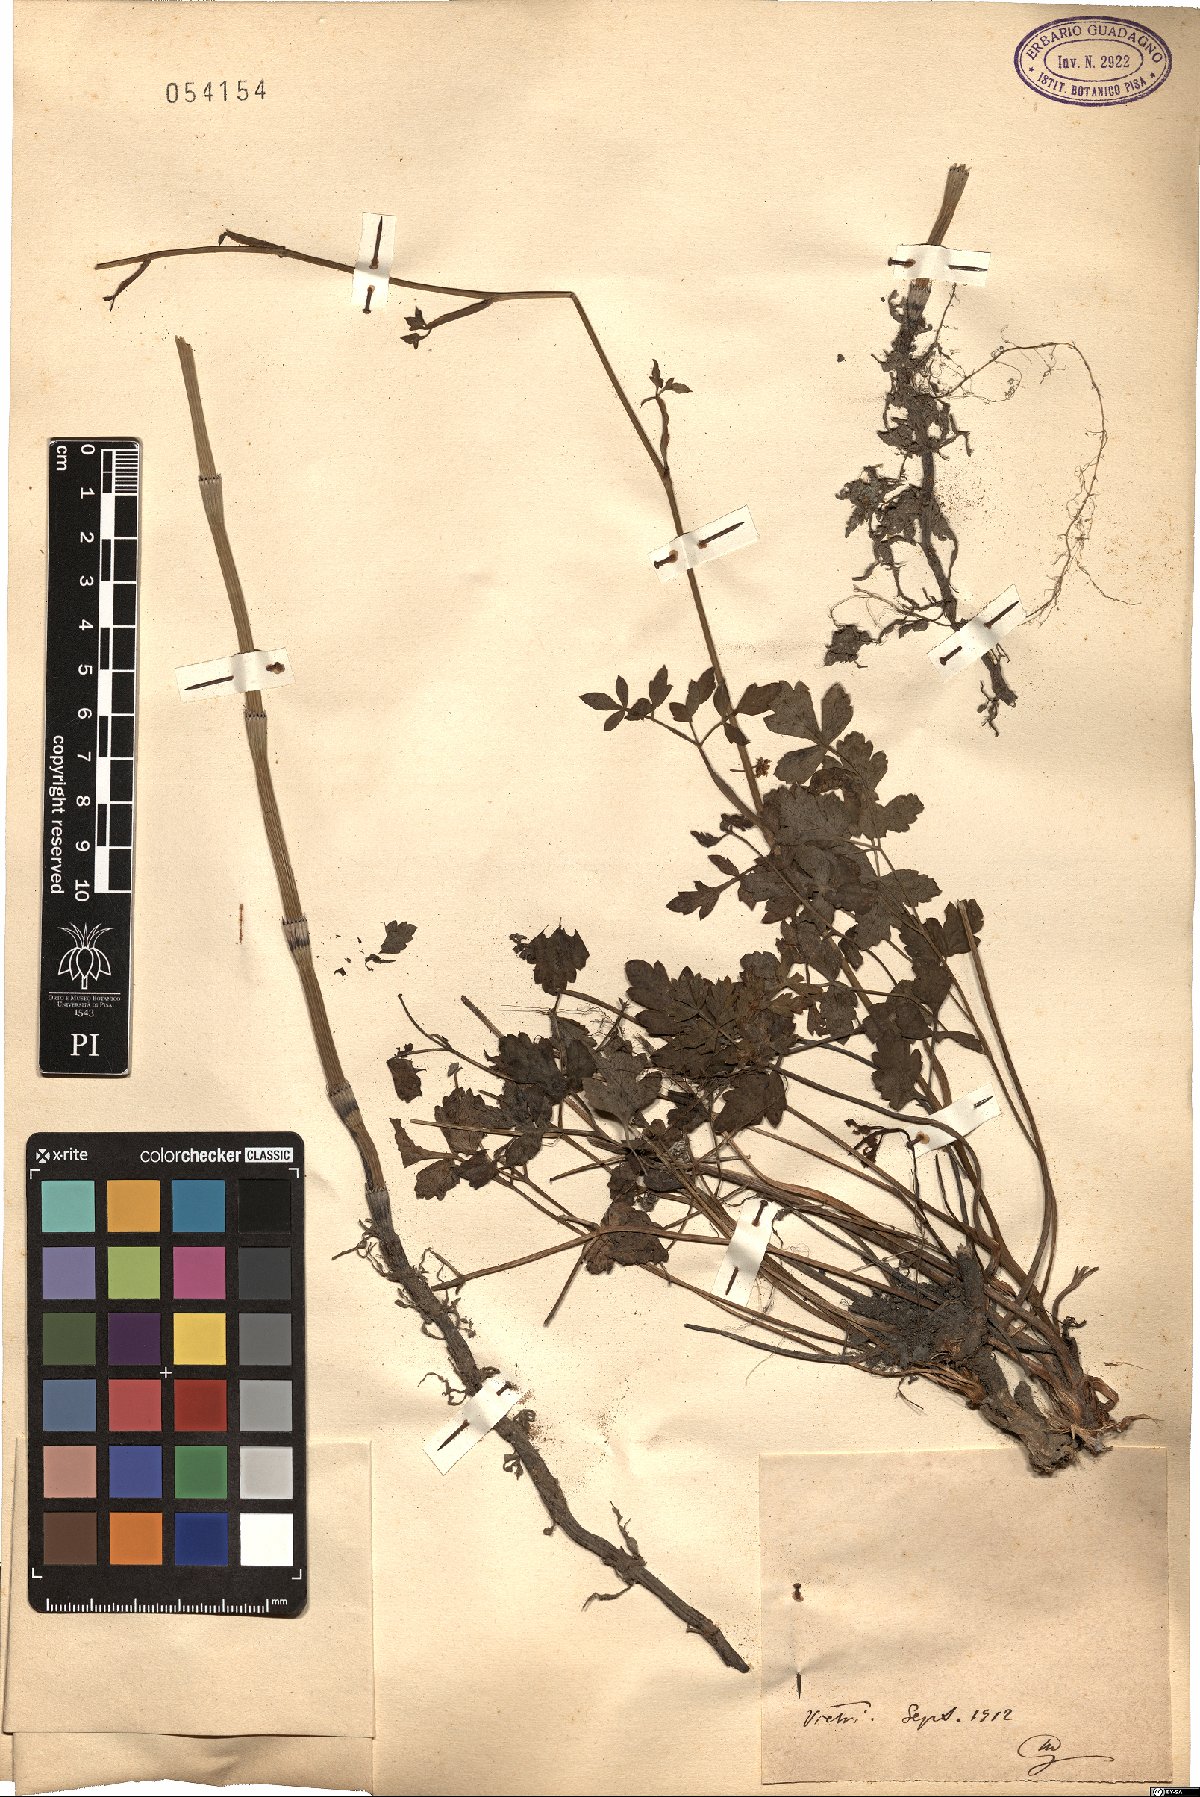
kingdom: Plantae
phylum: Tracheophyta
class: Magnoliopsida
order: Apiales
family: Apiaceae
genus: Peucedanum
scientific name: Peucedanum
